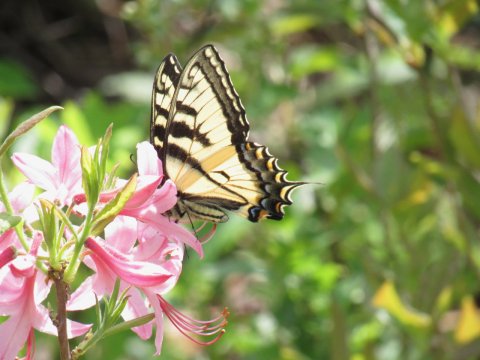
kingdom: Animalia
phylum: Arthropoda
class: Insecta
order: Lepidoptera
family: Papilionidae
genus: Pterourus
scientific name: Pterourus canadensis
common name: Canadian Tiger Swallowtail
